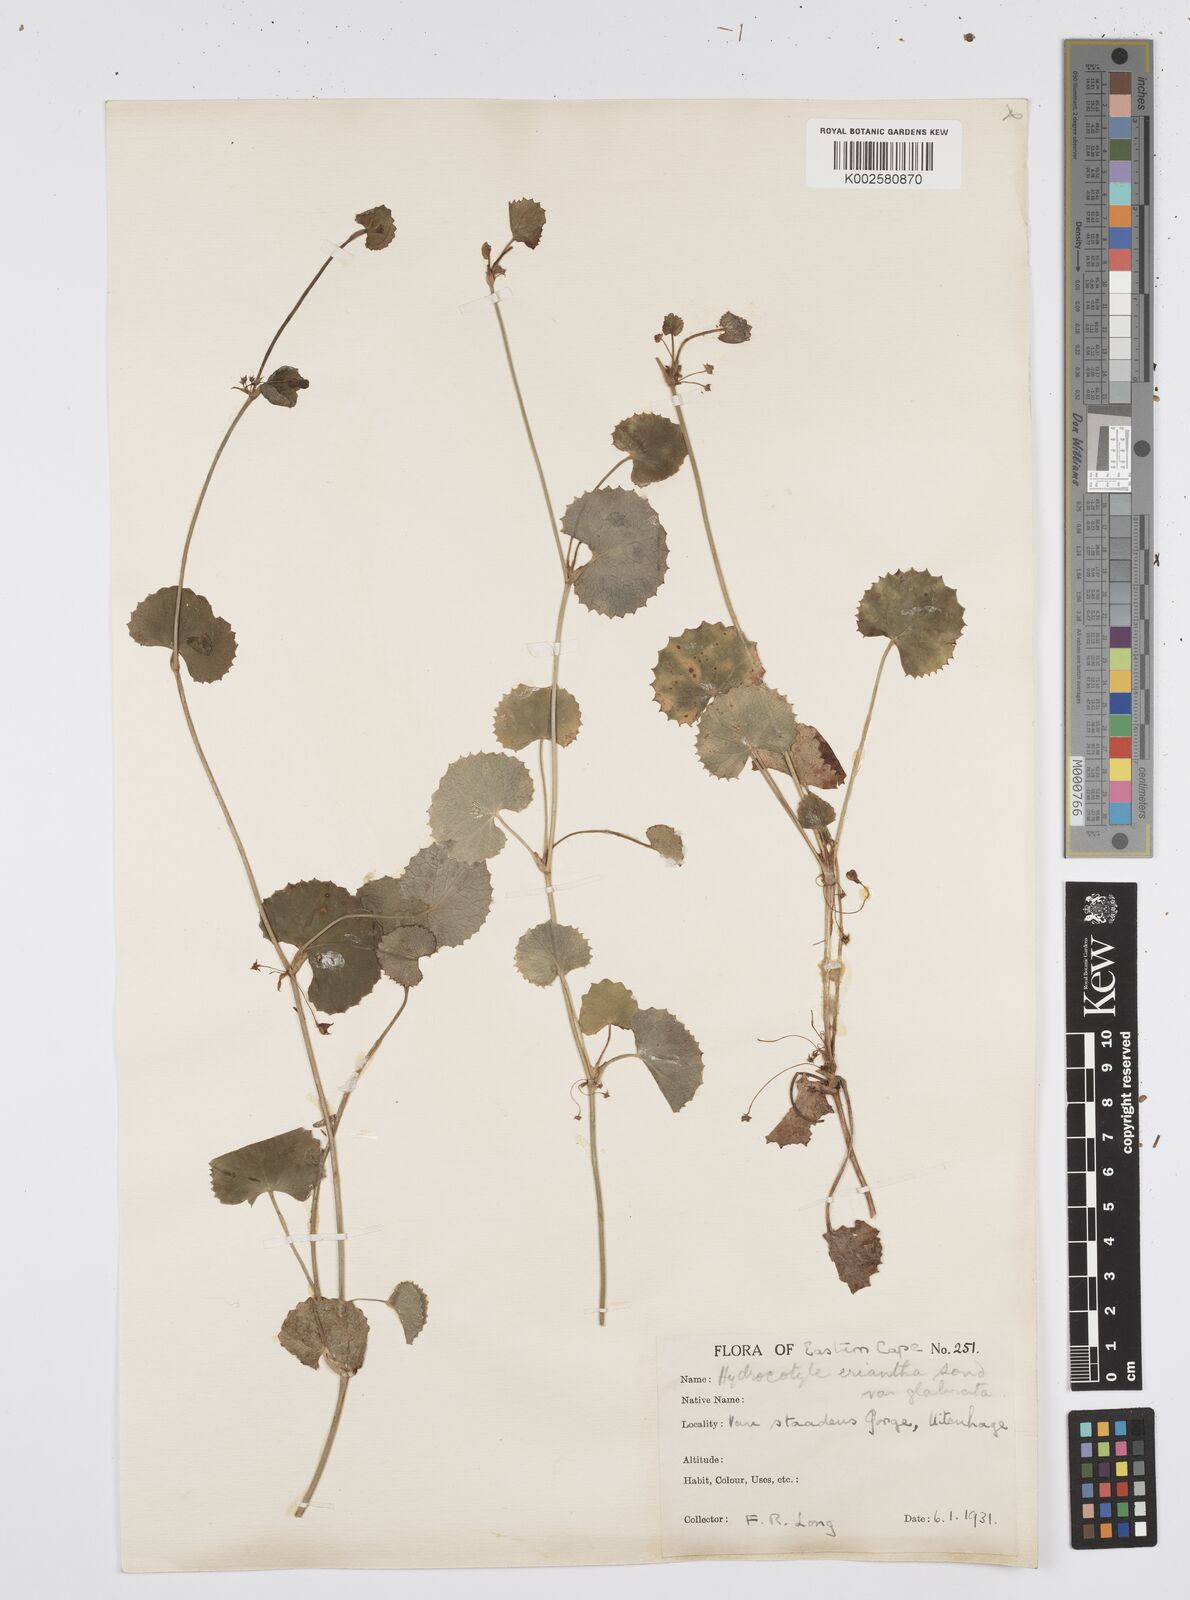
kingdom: Plantae
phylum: Tracheophyta
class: Magnoliopsida
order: Apiales
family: Apiaceae
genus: Centella
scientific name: Centella eriantha
